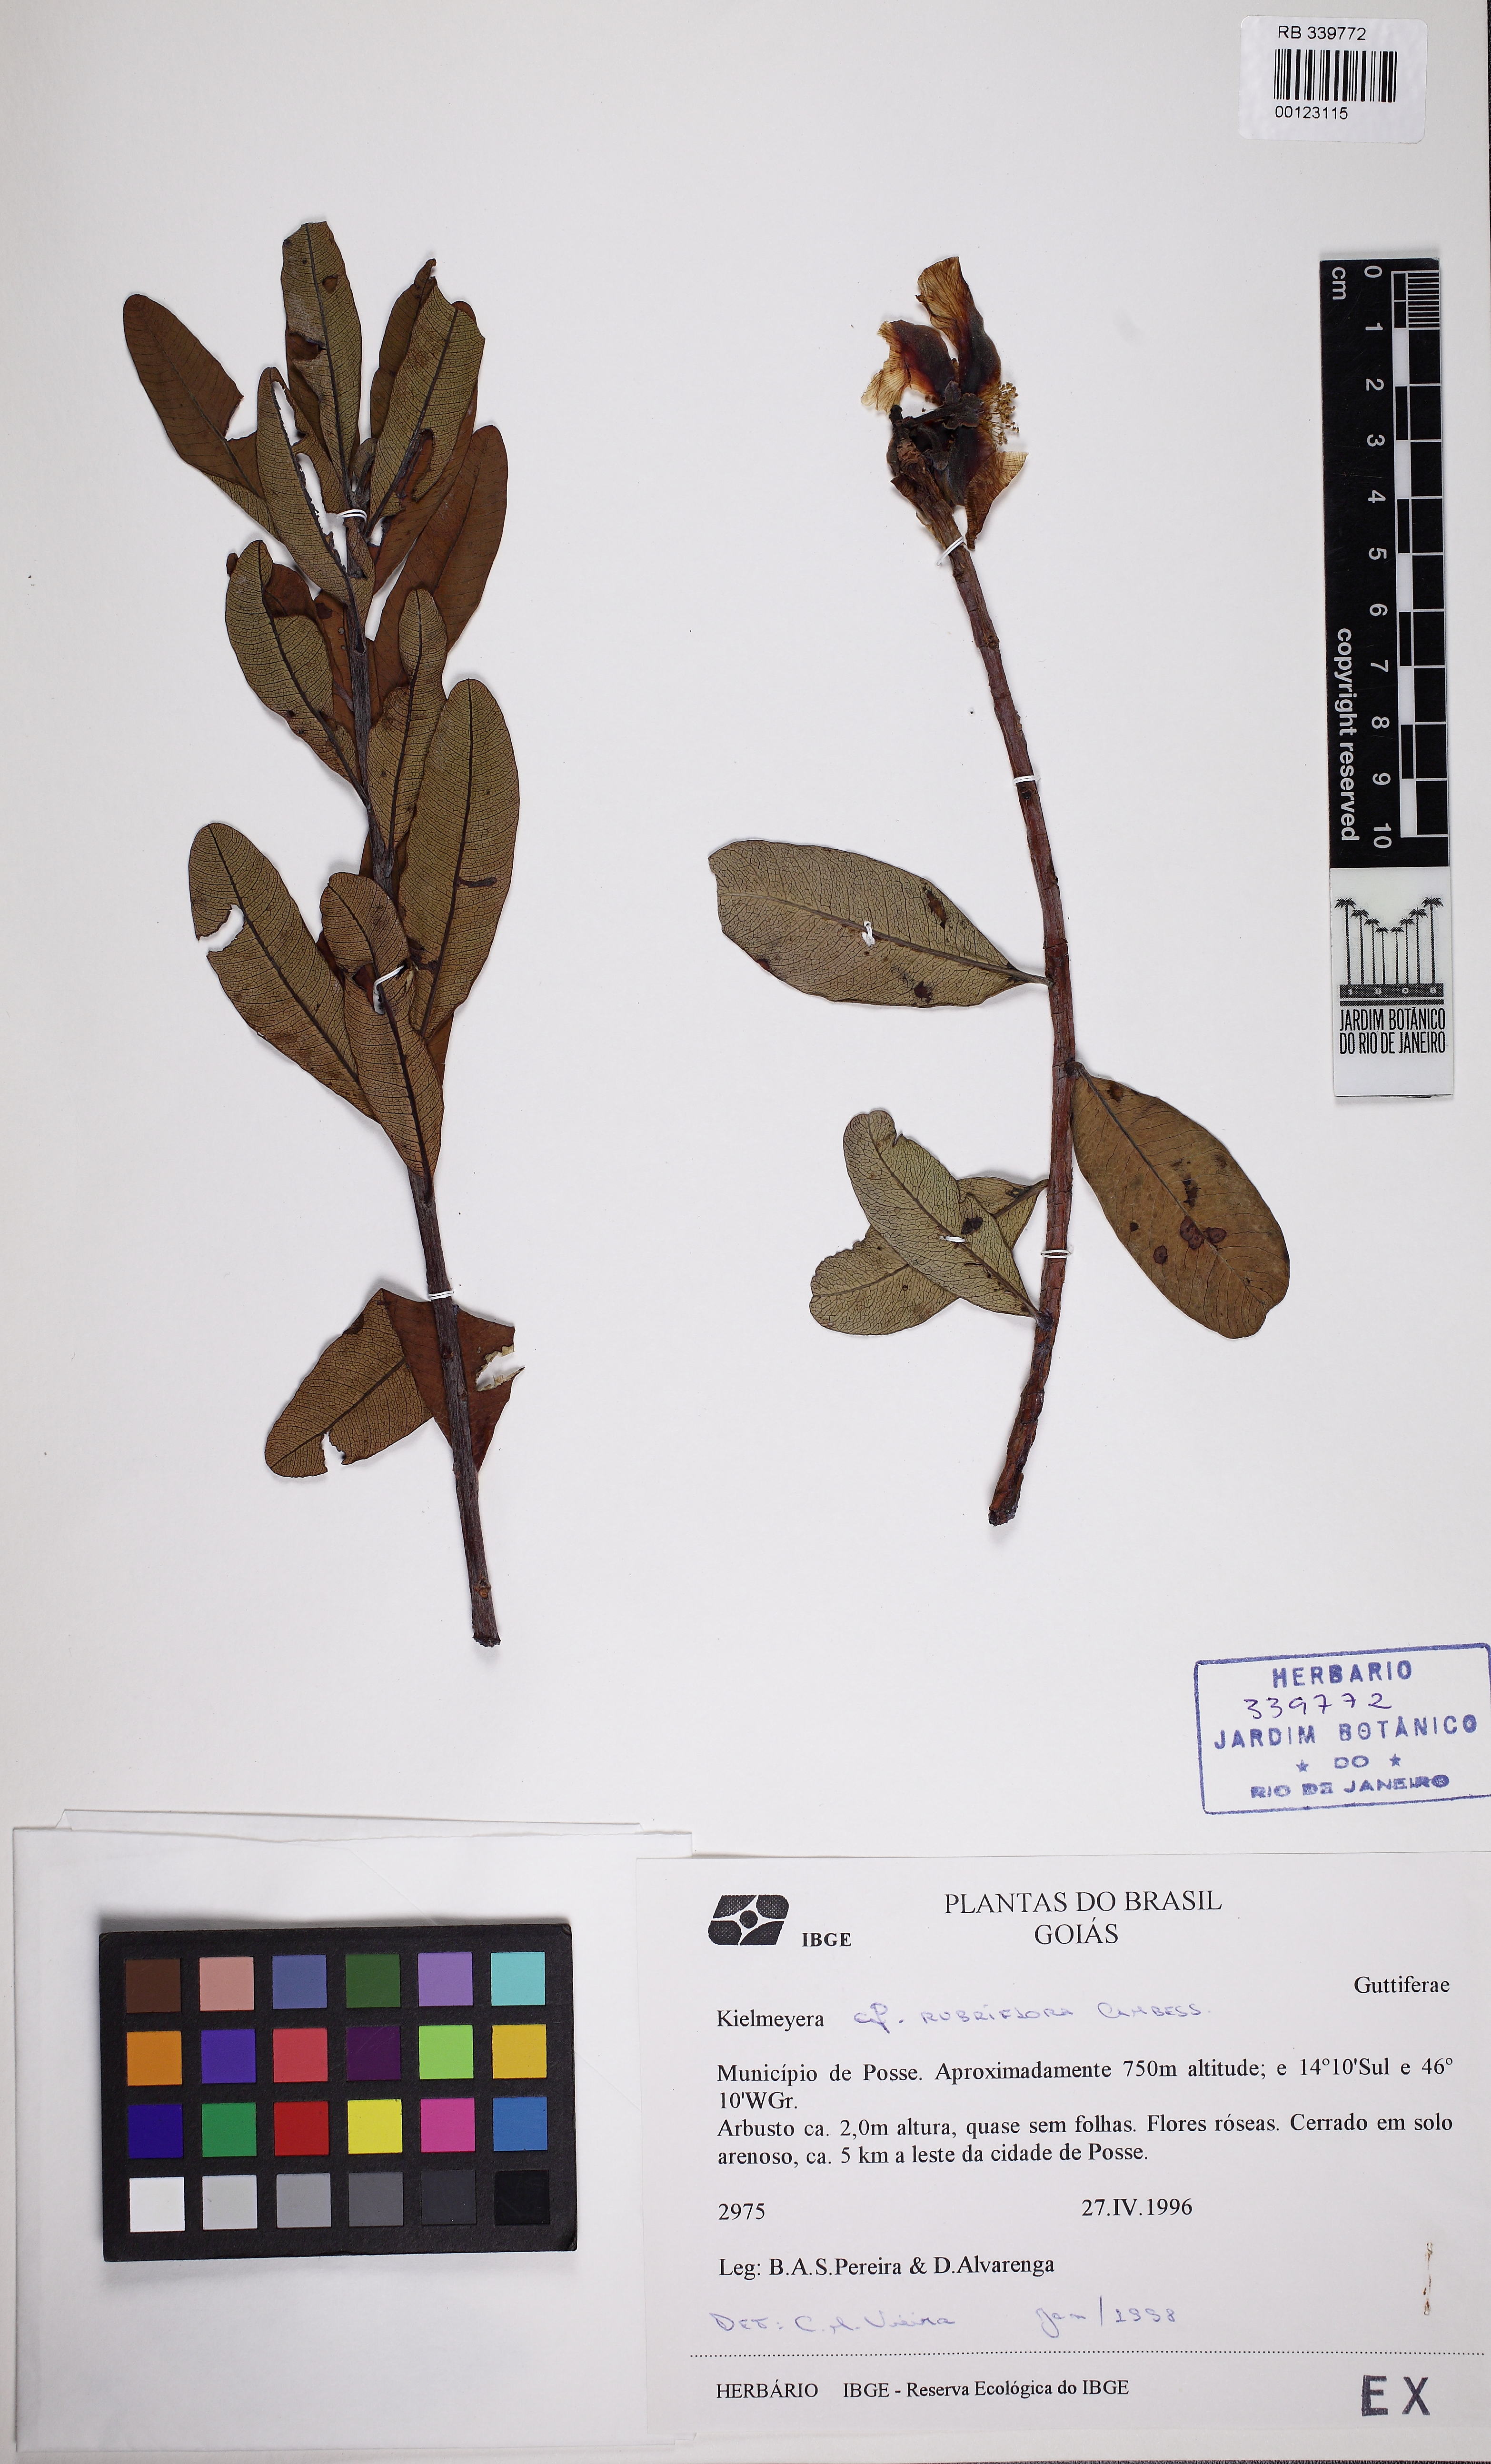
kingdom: Plantae
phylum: Tracheophyta
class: Magnoliopsida
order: Malpighiales
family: Calophyllaceae
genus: Kielmeyera
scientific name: Kielmeyera rubriflora
